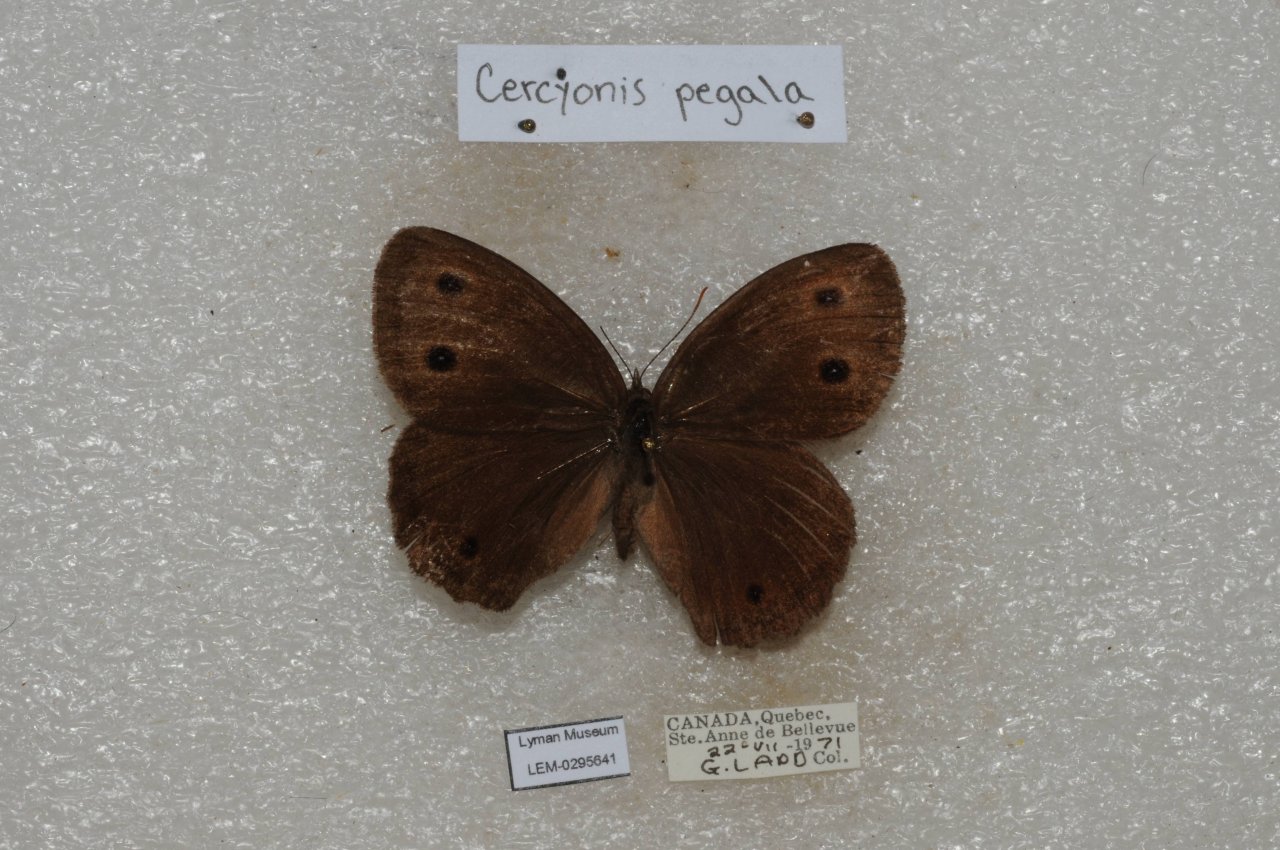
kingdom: Animalia
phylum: Arthropoda
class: Insecta
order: Lepidoptera
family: Nymphalidae
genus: Cercyonis
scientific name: Cercyonis pegala
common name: Common Wood-Nymph
